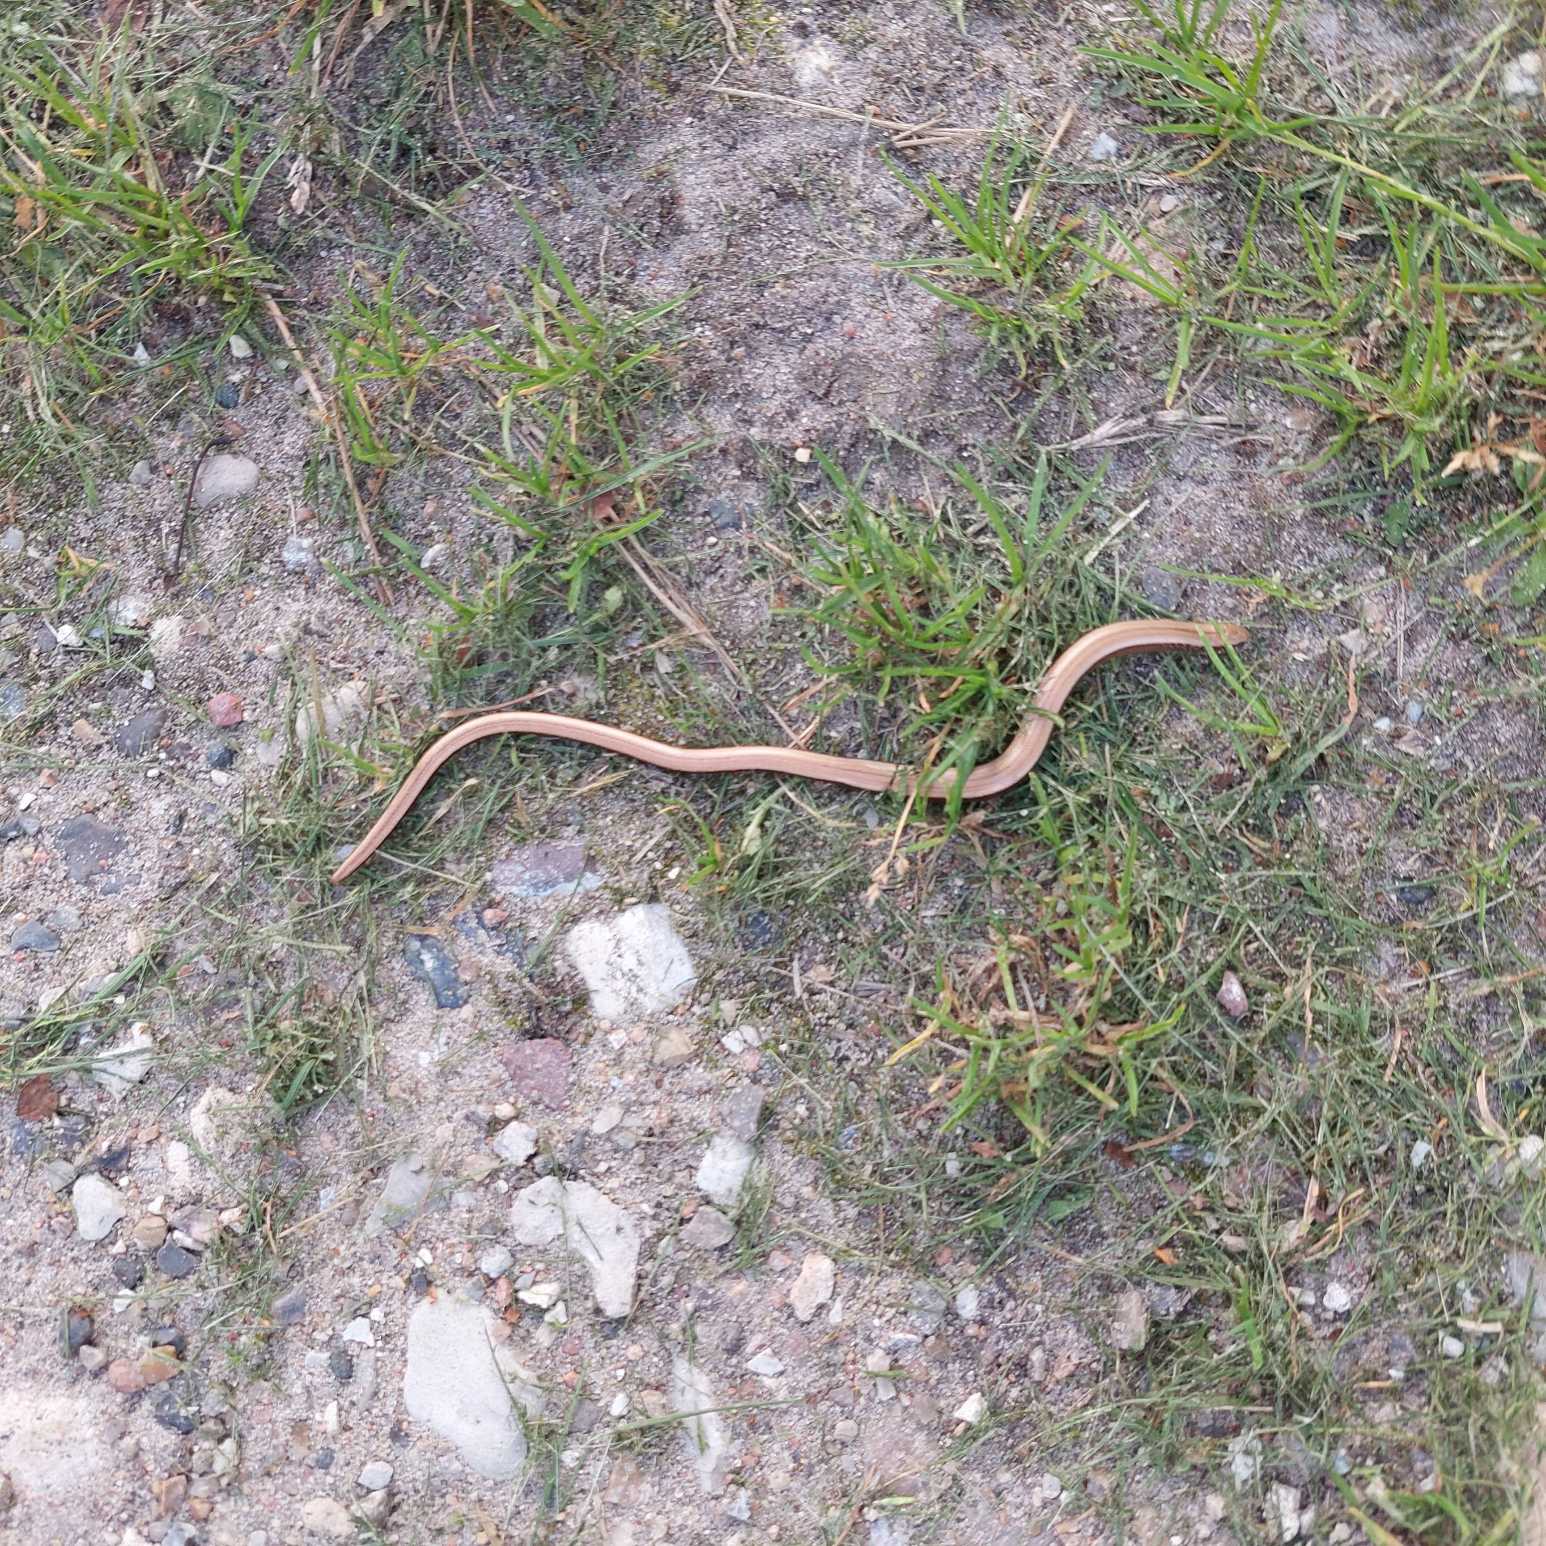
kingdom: Animalia
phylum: Chordata
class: Squamata
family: Anguidae
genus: Anguis
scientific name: Anguis fragilis
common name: Stålorm
